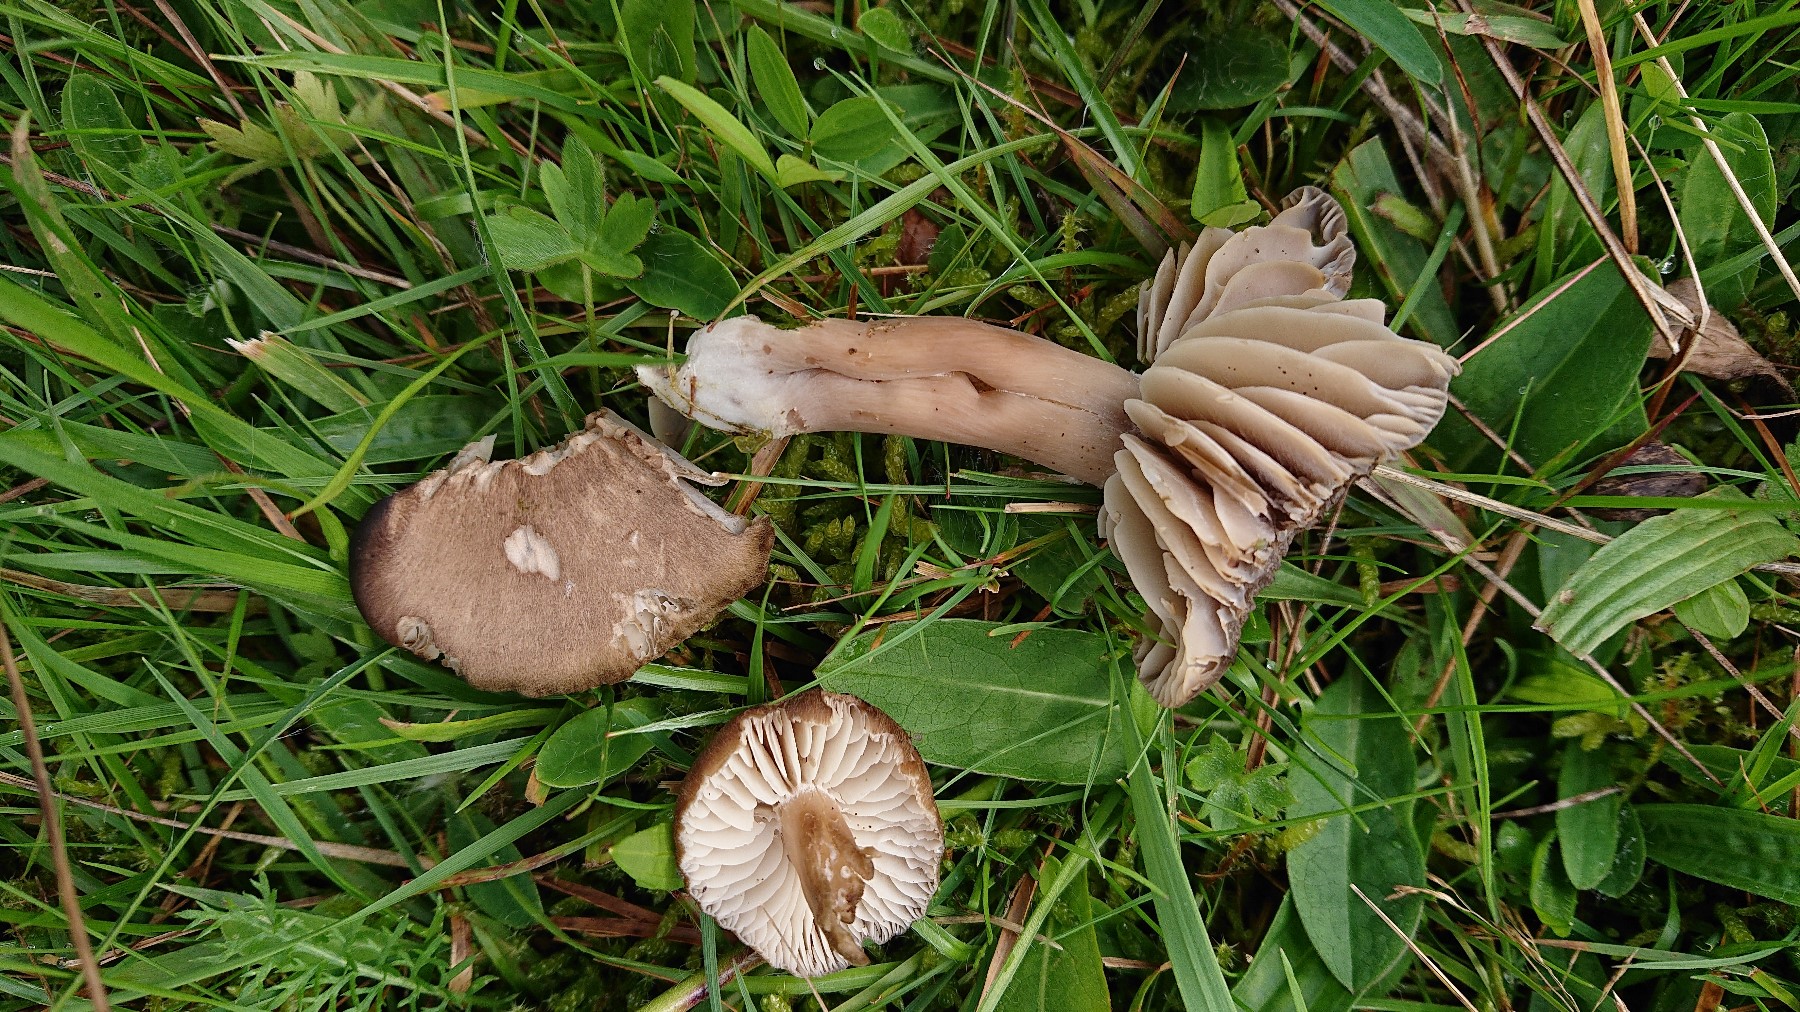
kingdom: Fungi
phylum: Basidiomycota
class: Agaricomycetes
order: Agaricales
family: Hygrophoraceae
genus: Neohygrocybe
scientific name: Neohygrocybe nitrata
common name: stinkende vokshat
